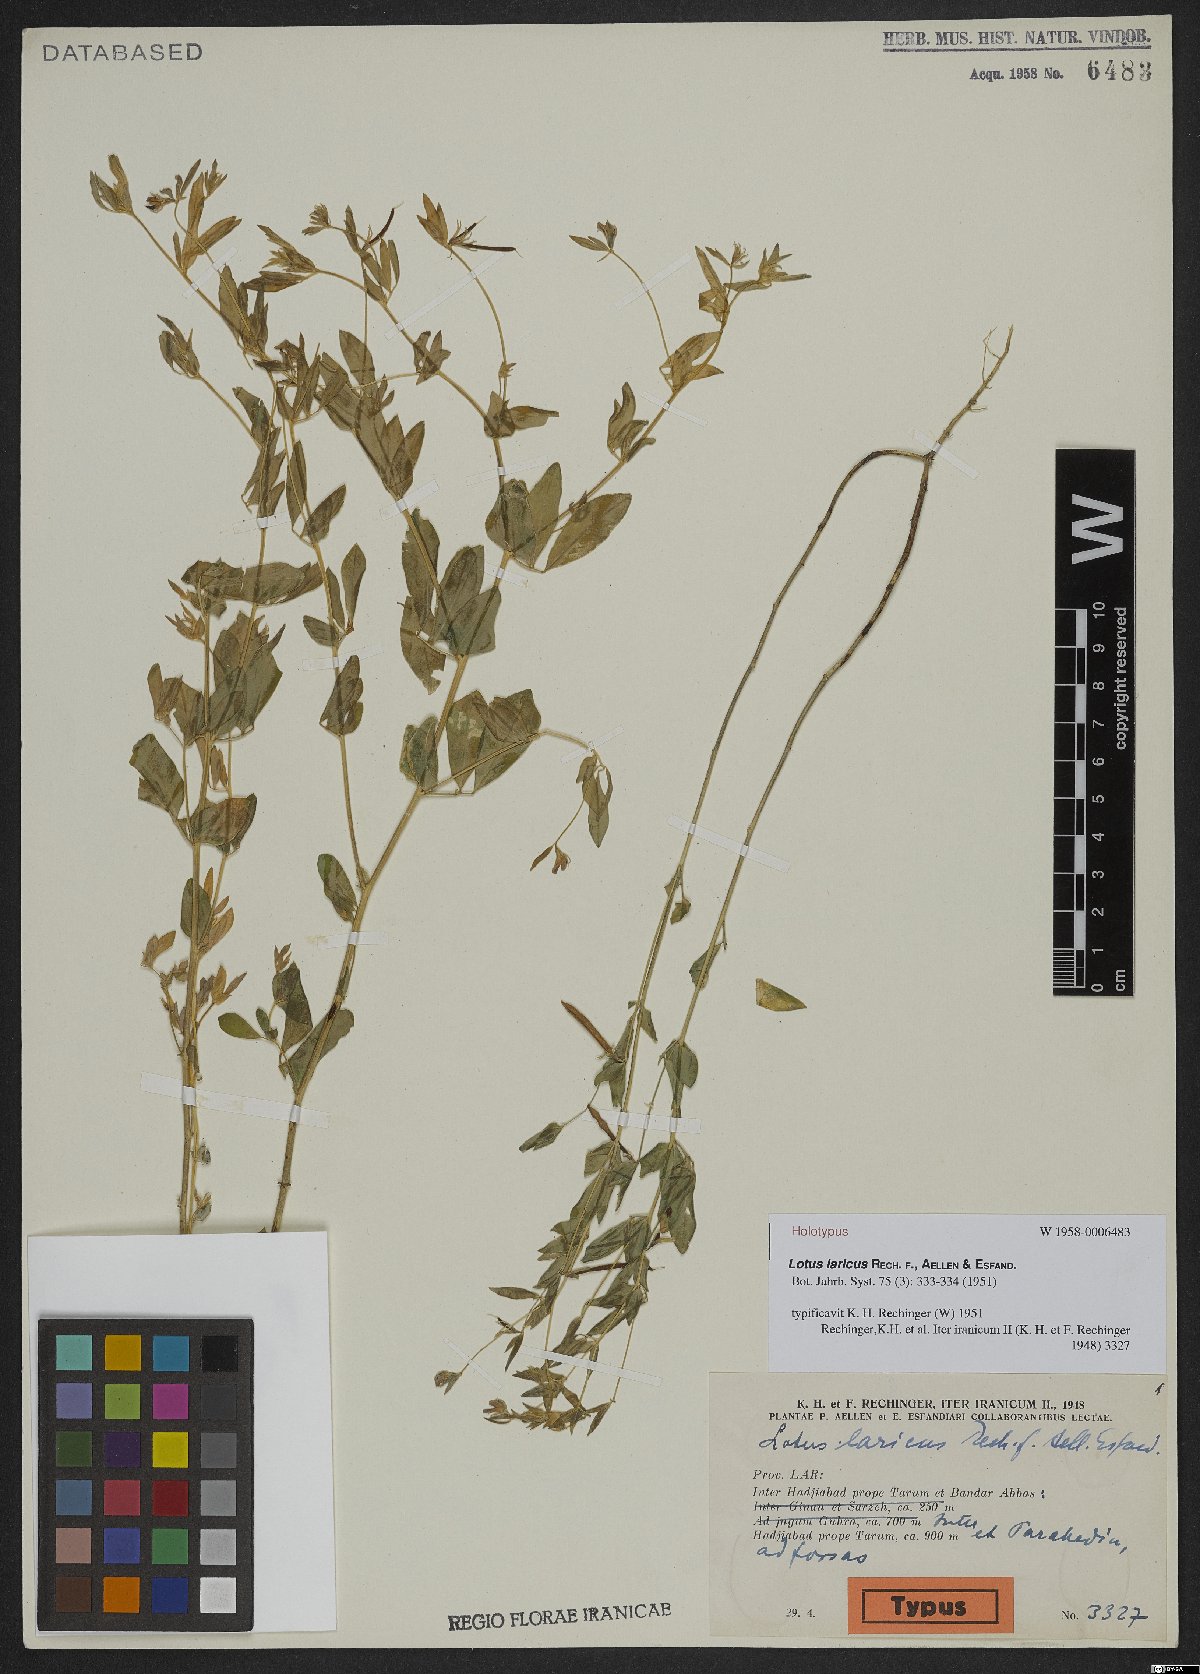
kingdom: Plantae
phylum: Tracheophyta
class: Magnoliopsida
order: Fabales
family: Fabaceae
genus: Lotus
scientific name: Lotus laricus
